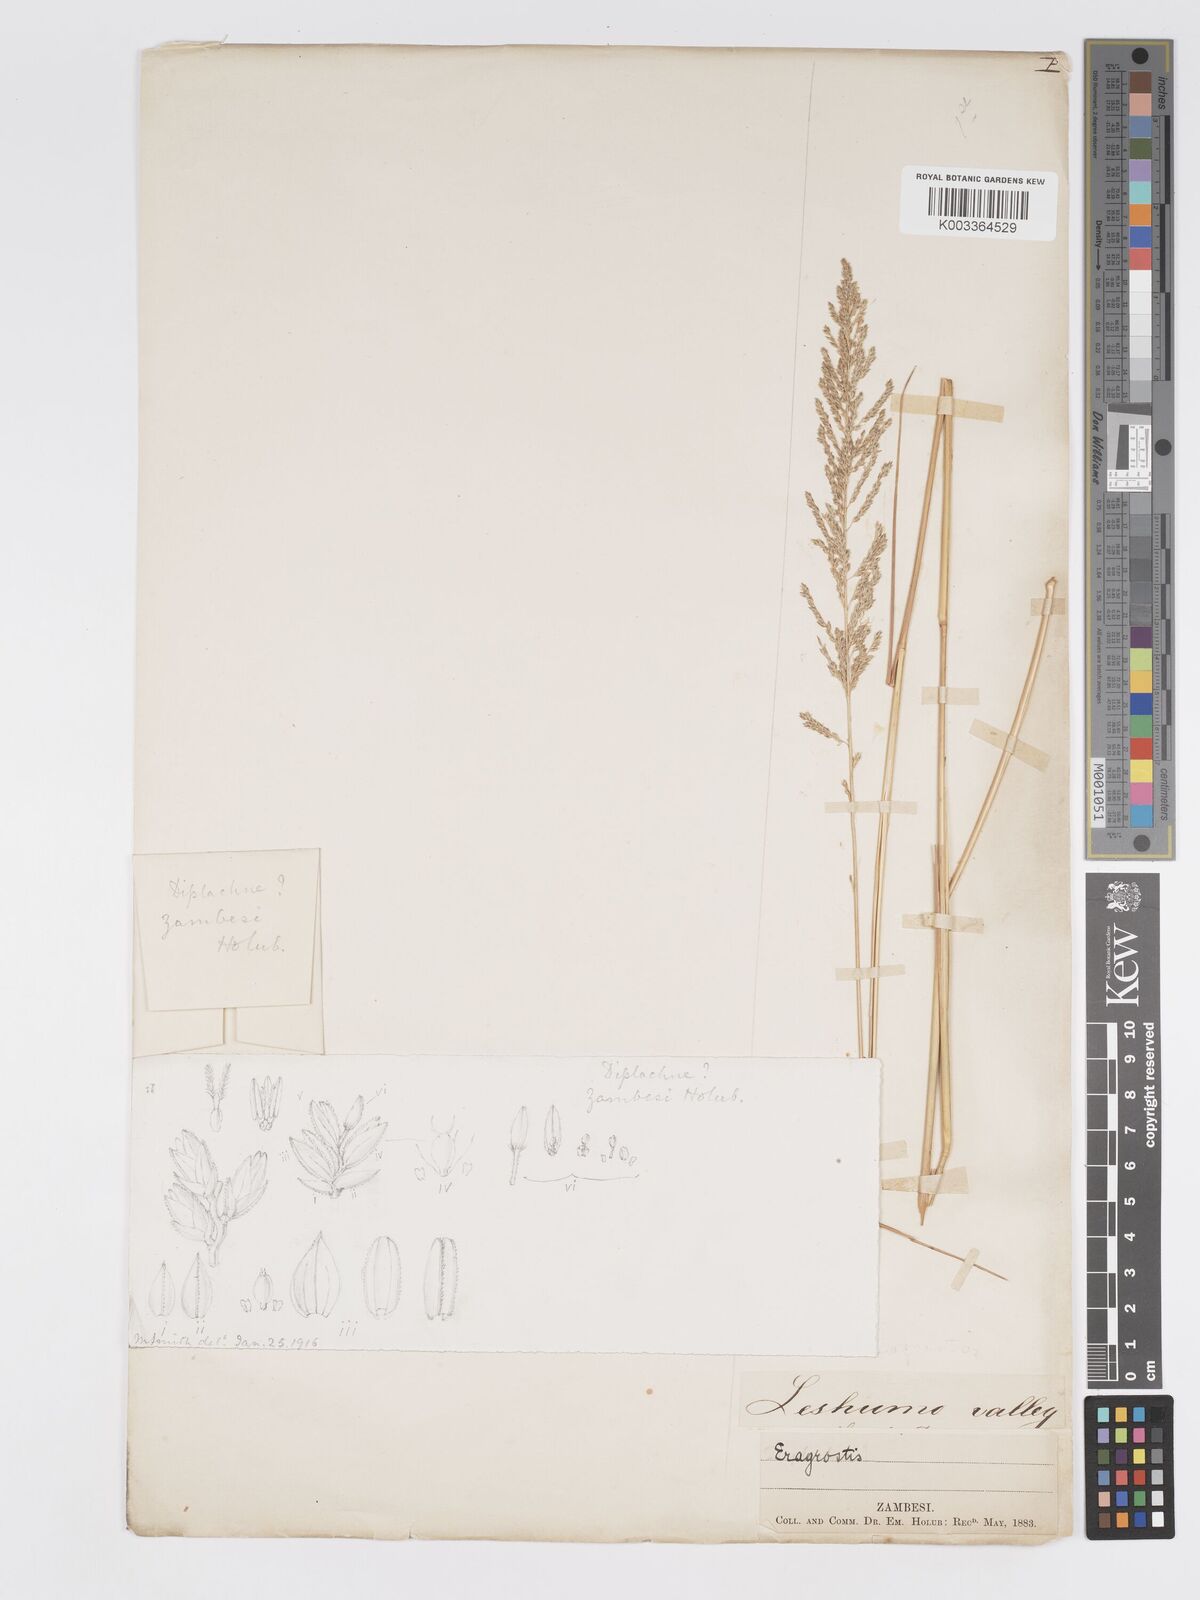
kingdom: Plantae
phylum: Tracheophyta
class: Liliopsida
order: Poales
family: Poaceae
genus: Eragrostis
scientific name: Eragrostis brainii
